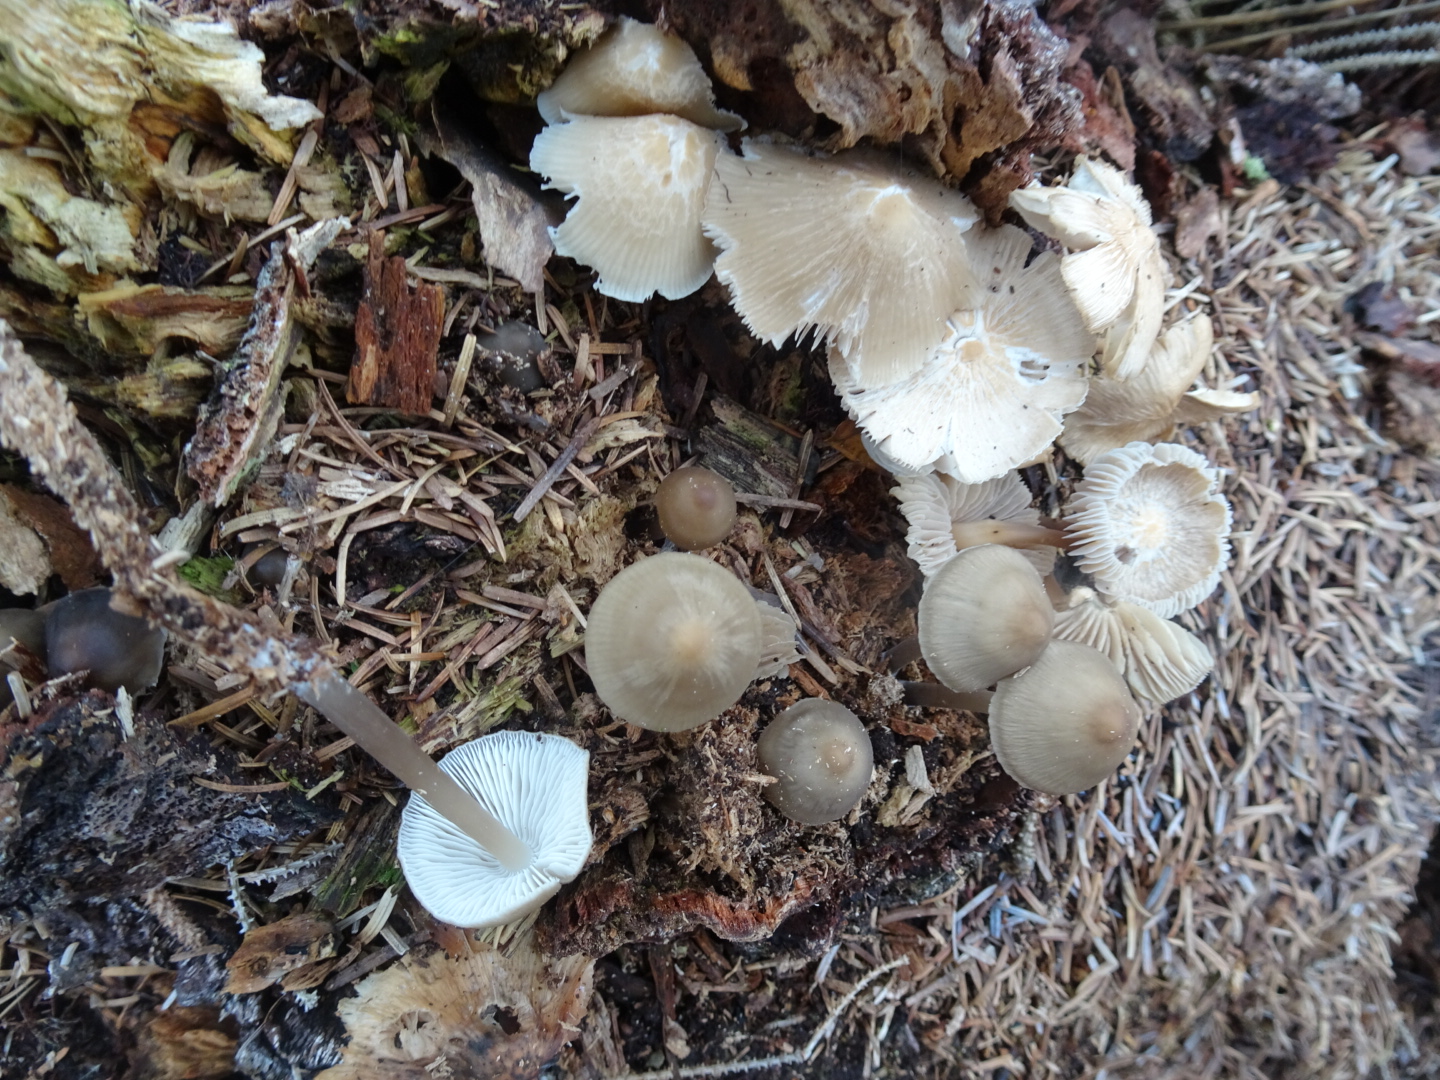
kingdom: Fungi
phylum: Basidiomycota
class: Agaricomycetes
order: Agaricales
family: Mycenaceae
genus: Mycena
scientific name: Mycena galericulata
